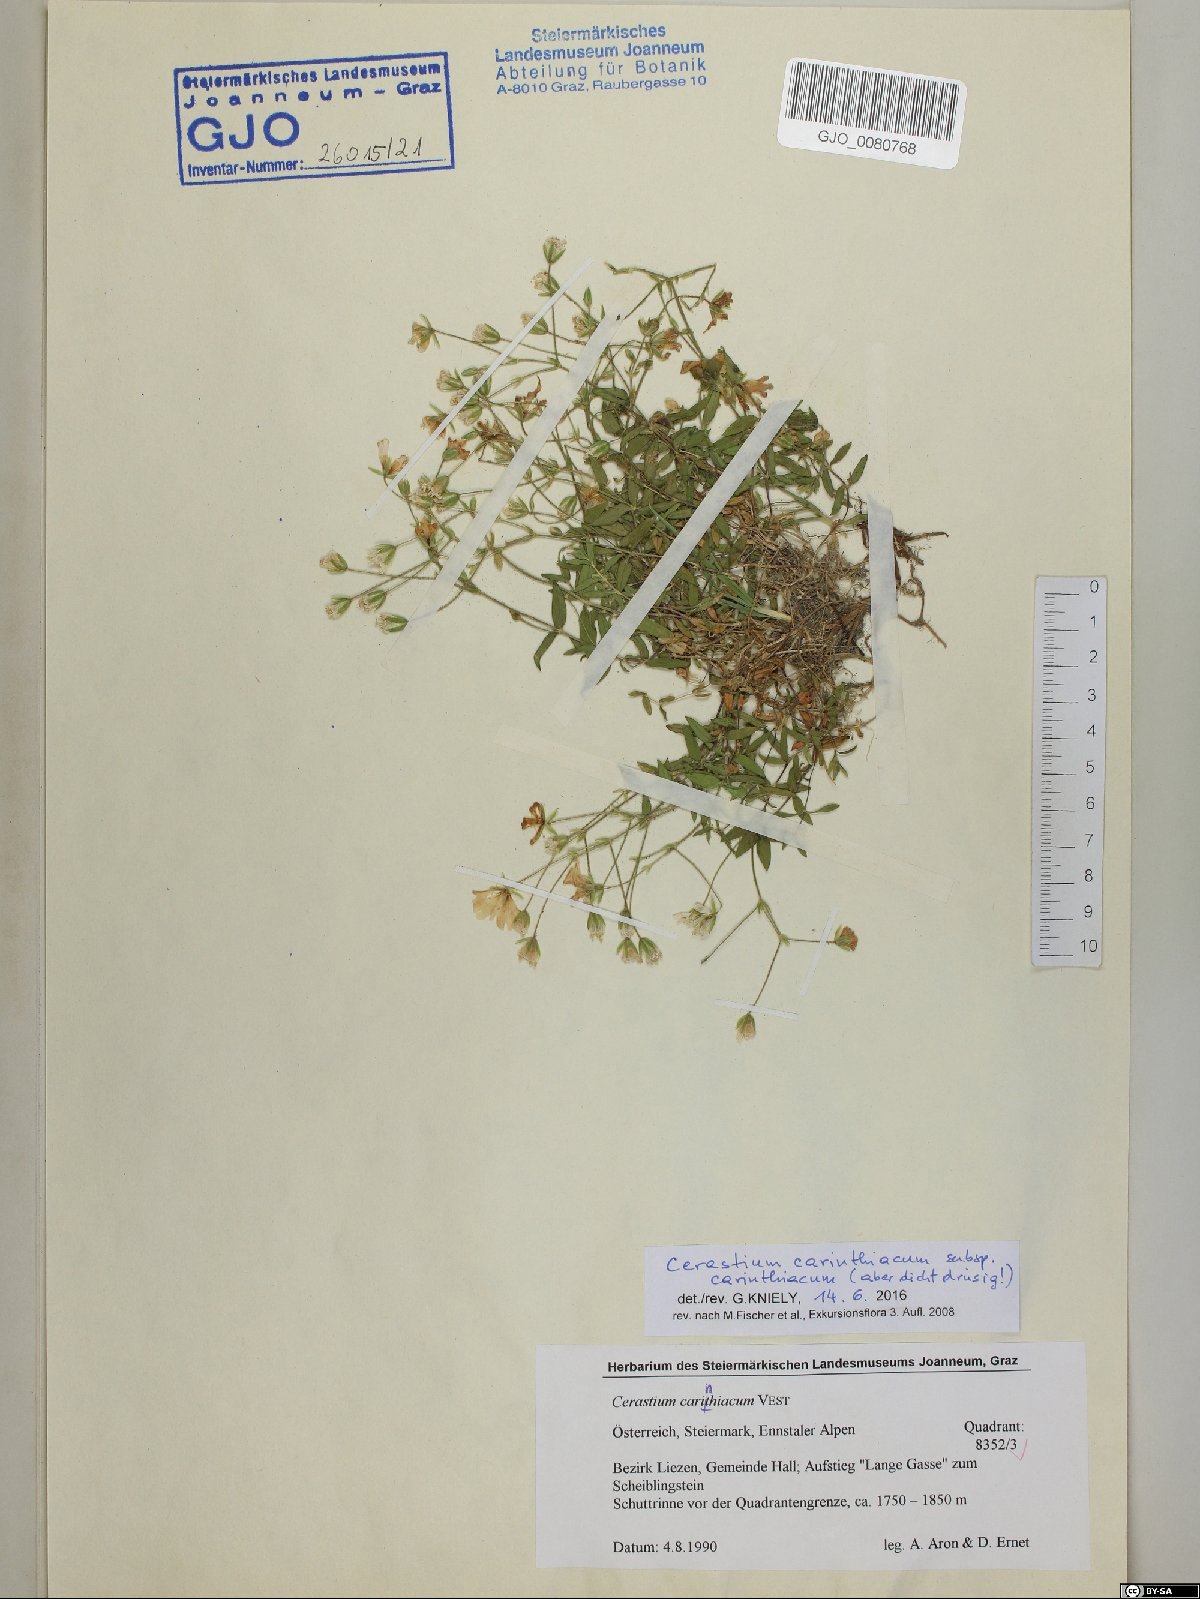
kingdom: Plantae
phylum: Tracheophyta
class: Magnoliopsida
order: Caryophyllales
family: Caryophyllaceae
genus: Cerastium
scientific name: Cerastium carinthiacum
